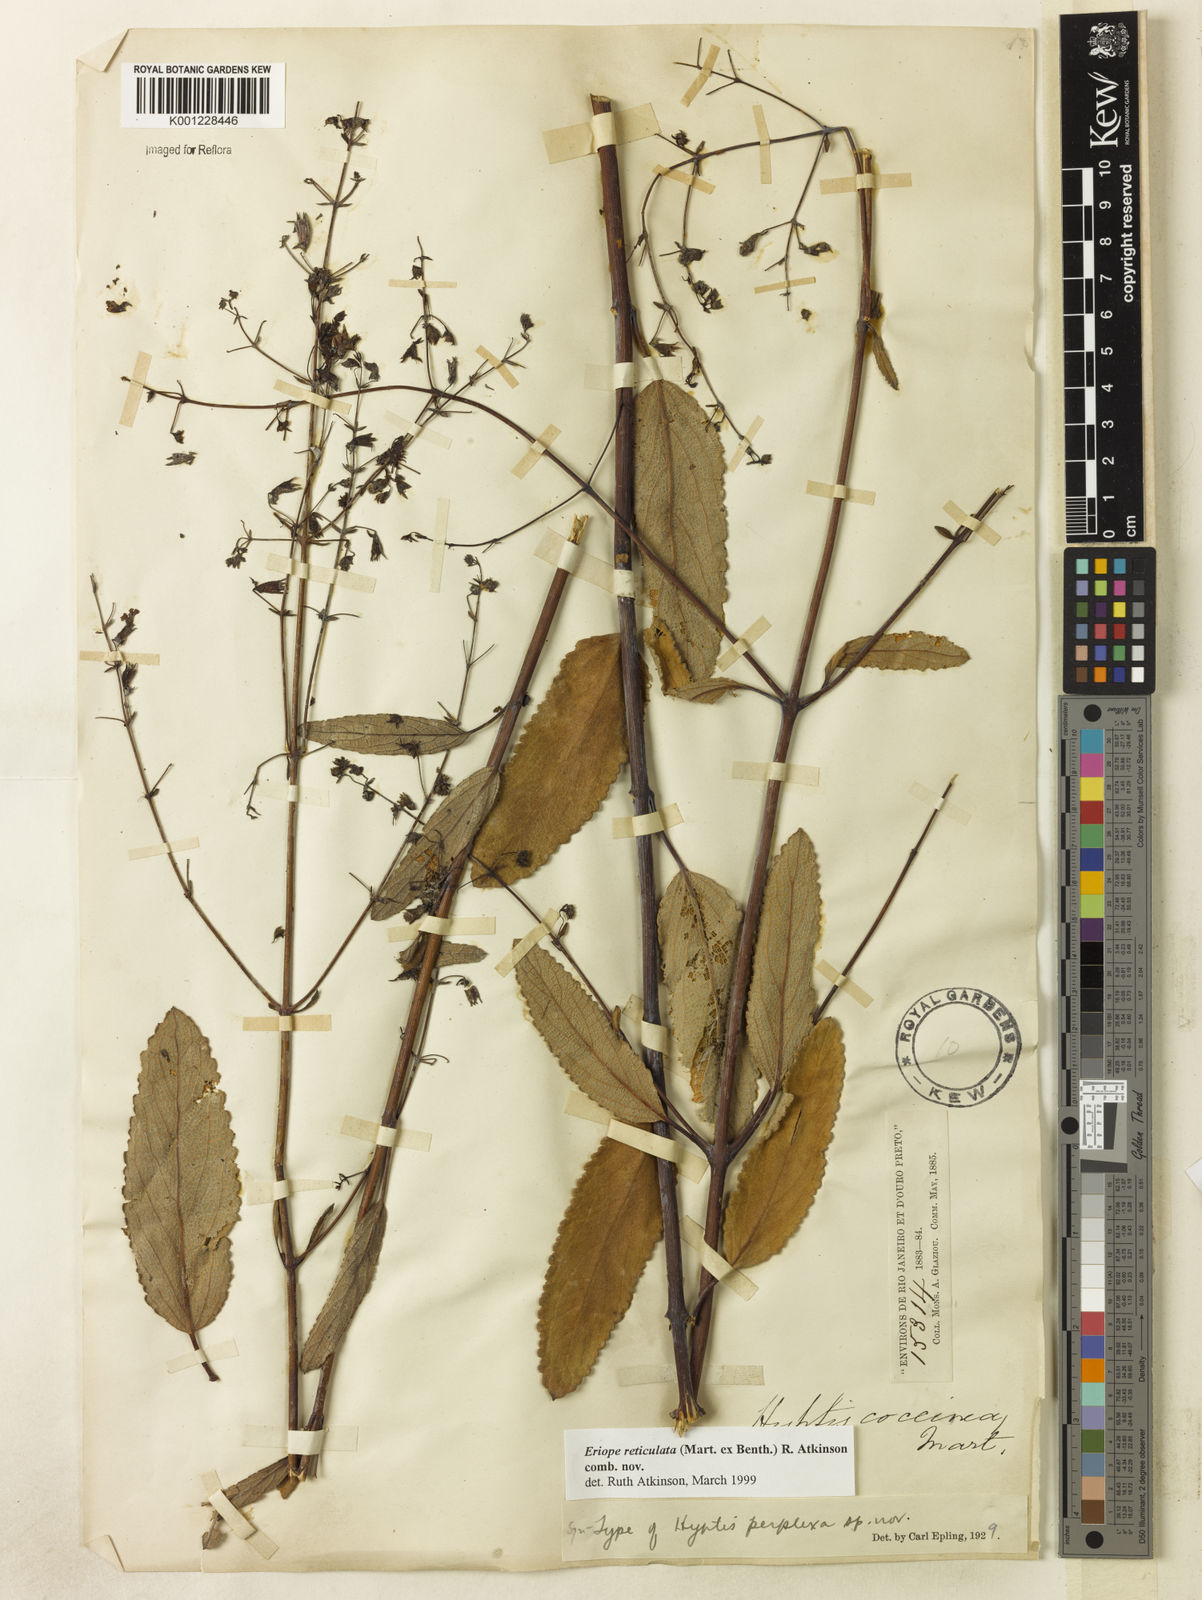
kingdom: Plantae
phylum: Tracheophyta
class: Magnoliopsida
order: Lamiales
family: Lamiaceae
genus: Hypenia
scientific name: Hypenia reticulata
